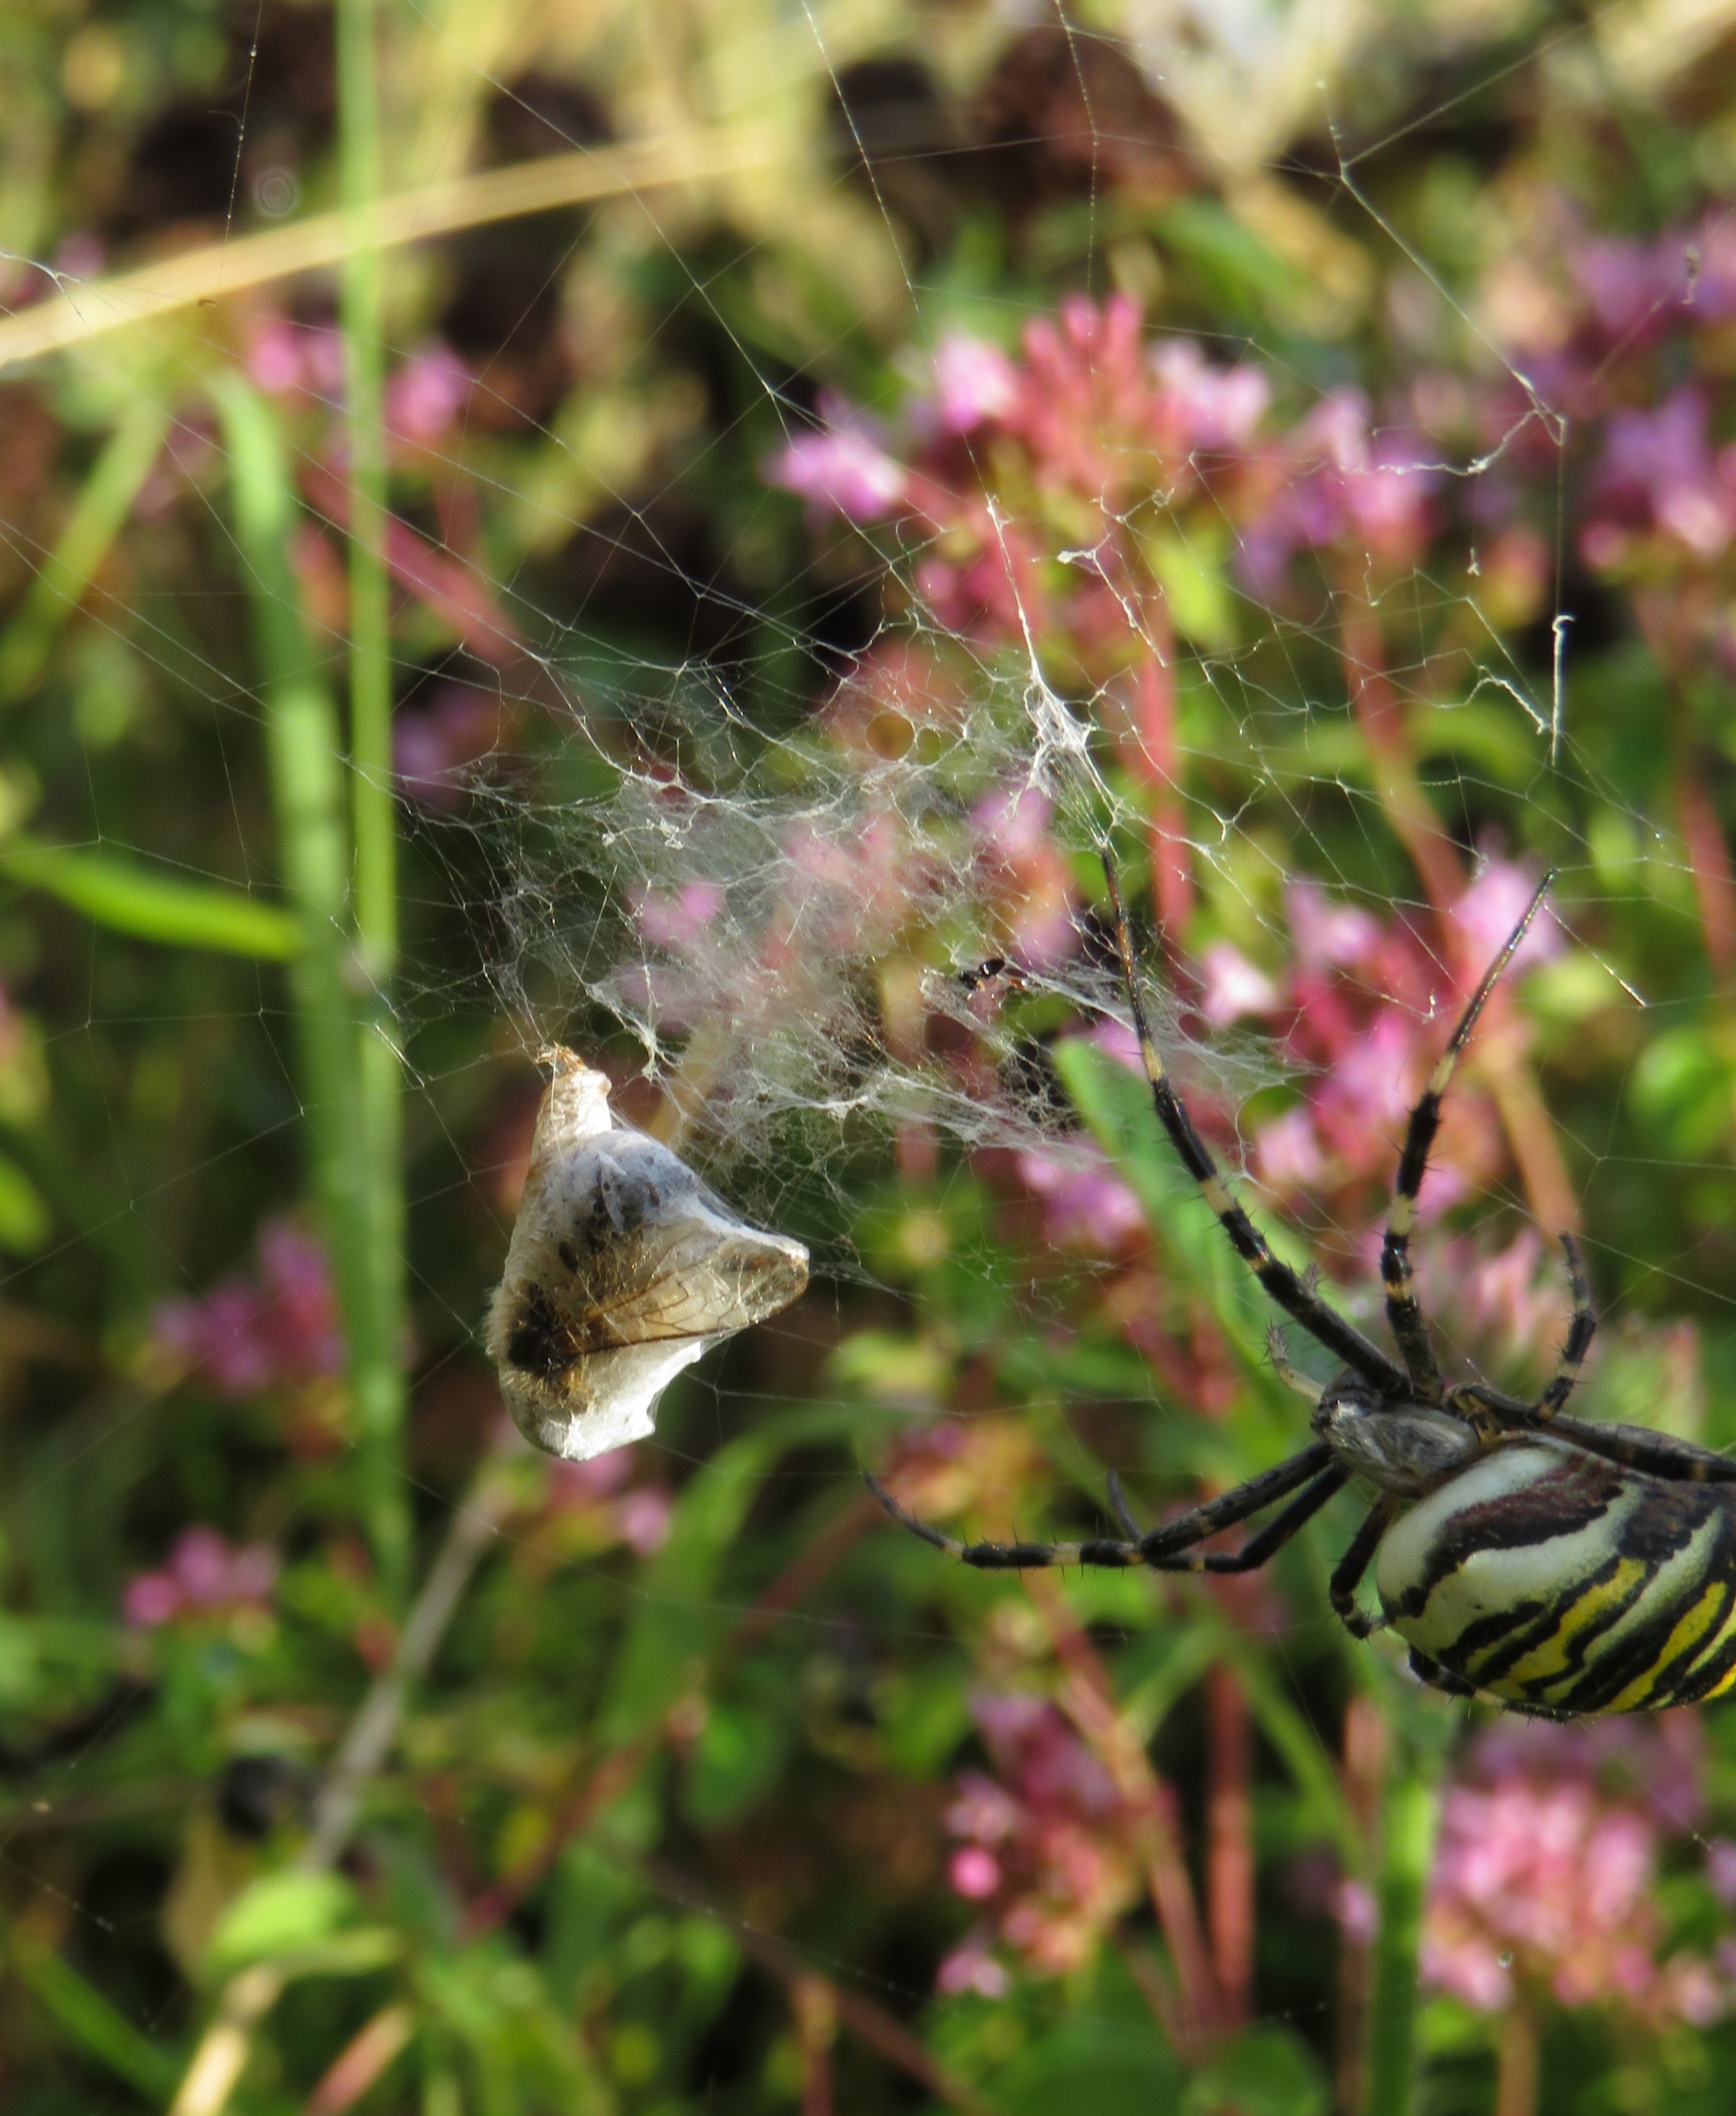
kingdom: Animalia
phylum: Arthropoda
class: Arachnida
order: Araneae
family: Araneidae
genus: Argiope
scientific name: Argiope bruennichi
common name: Hvepseedderkop
